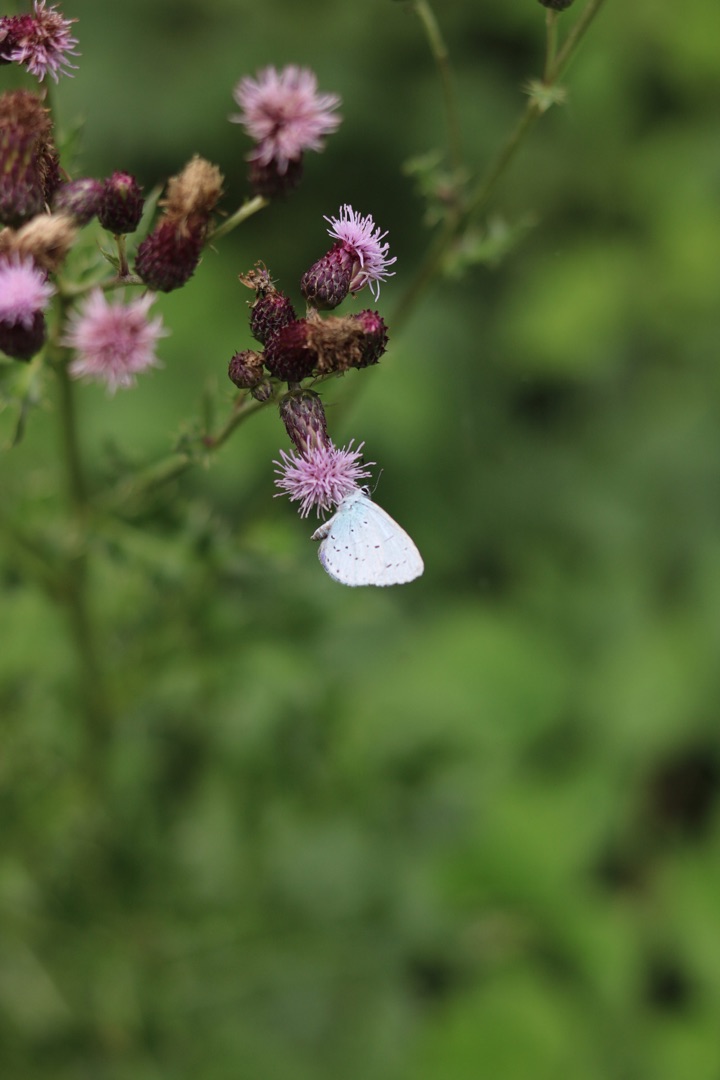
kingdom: Animalia
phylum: Arthropoda
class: Insecta
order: Lepidoptera
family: Lycaenidae
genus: Celastrina
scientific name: Celastrina argiolus
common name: Skovblåfugl
